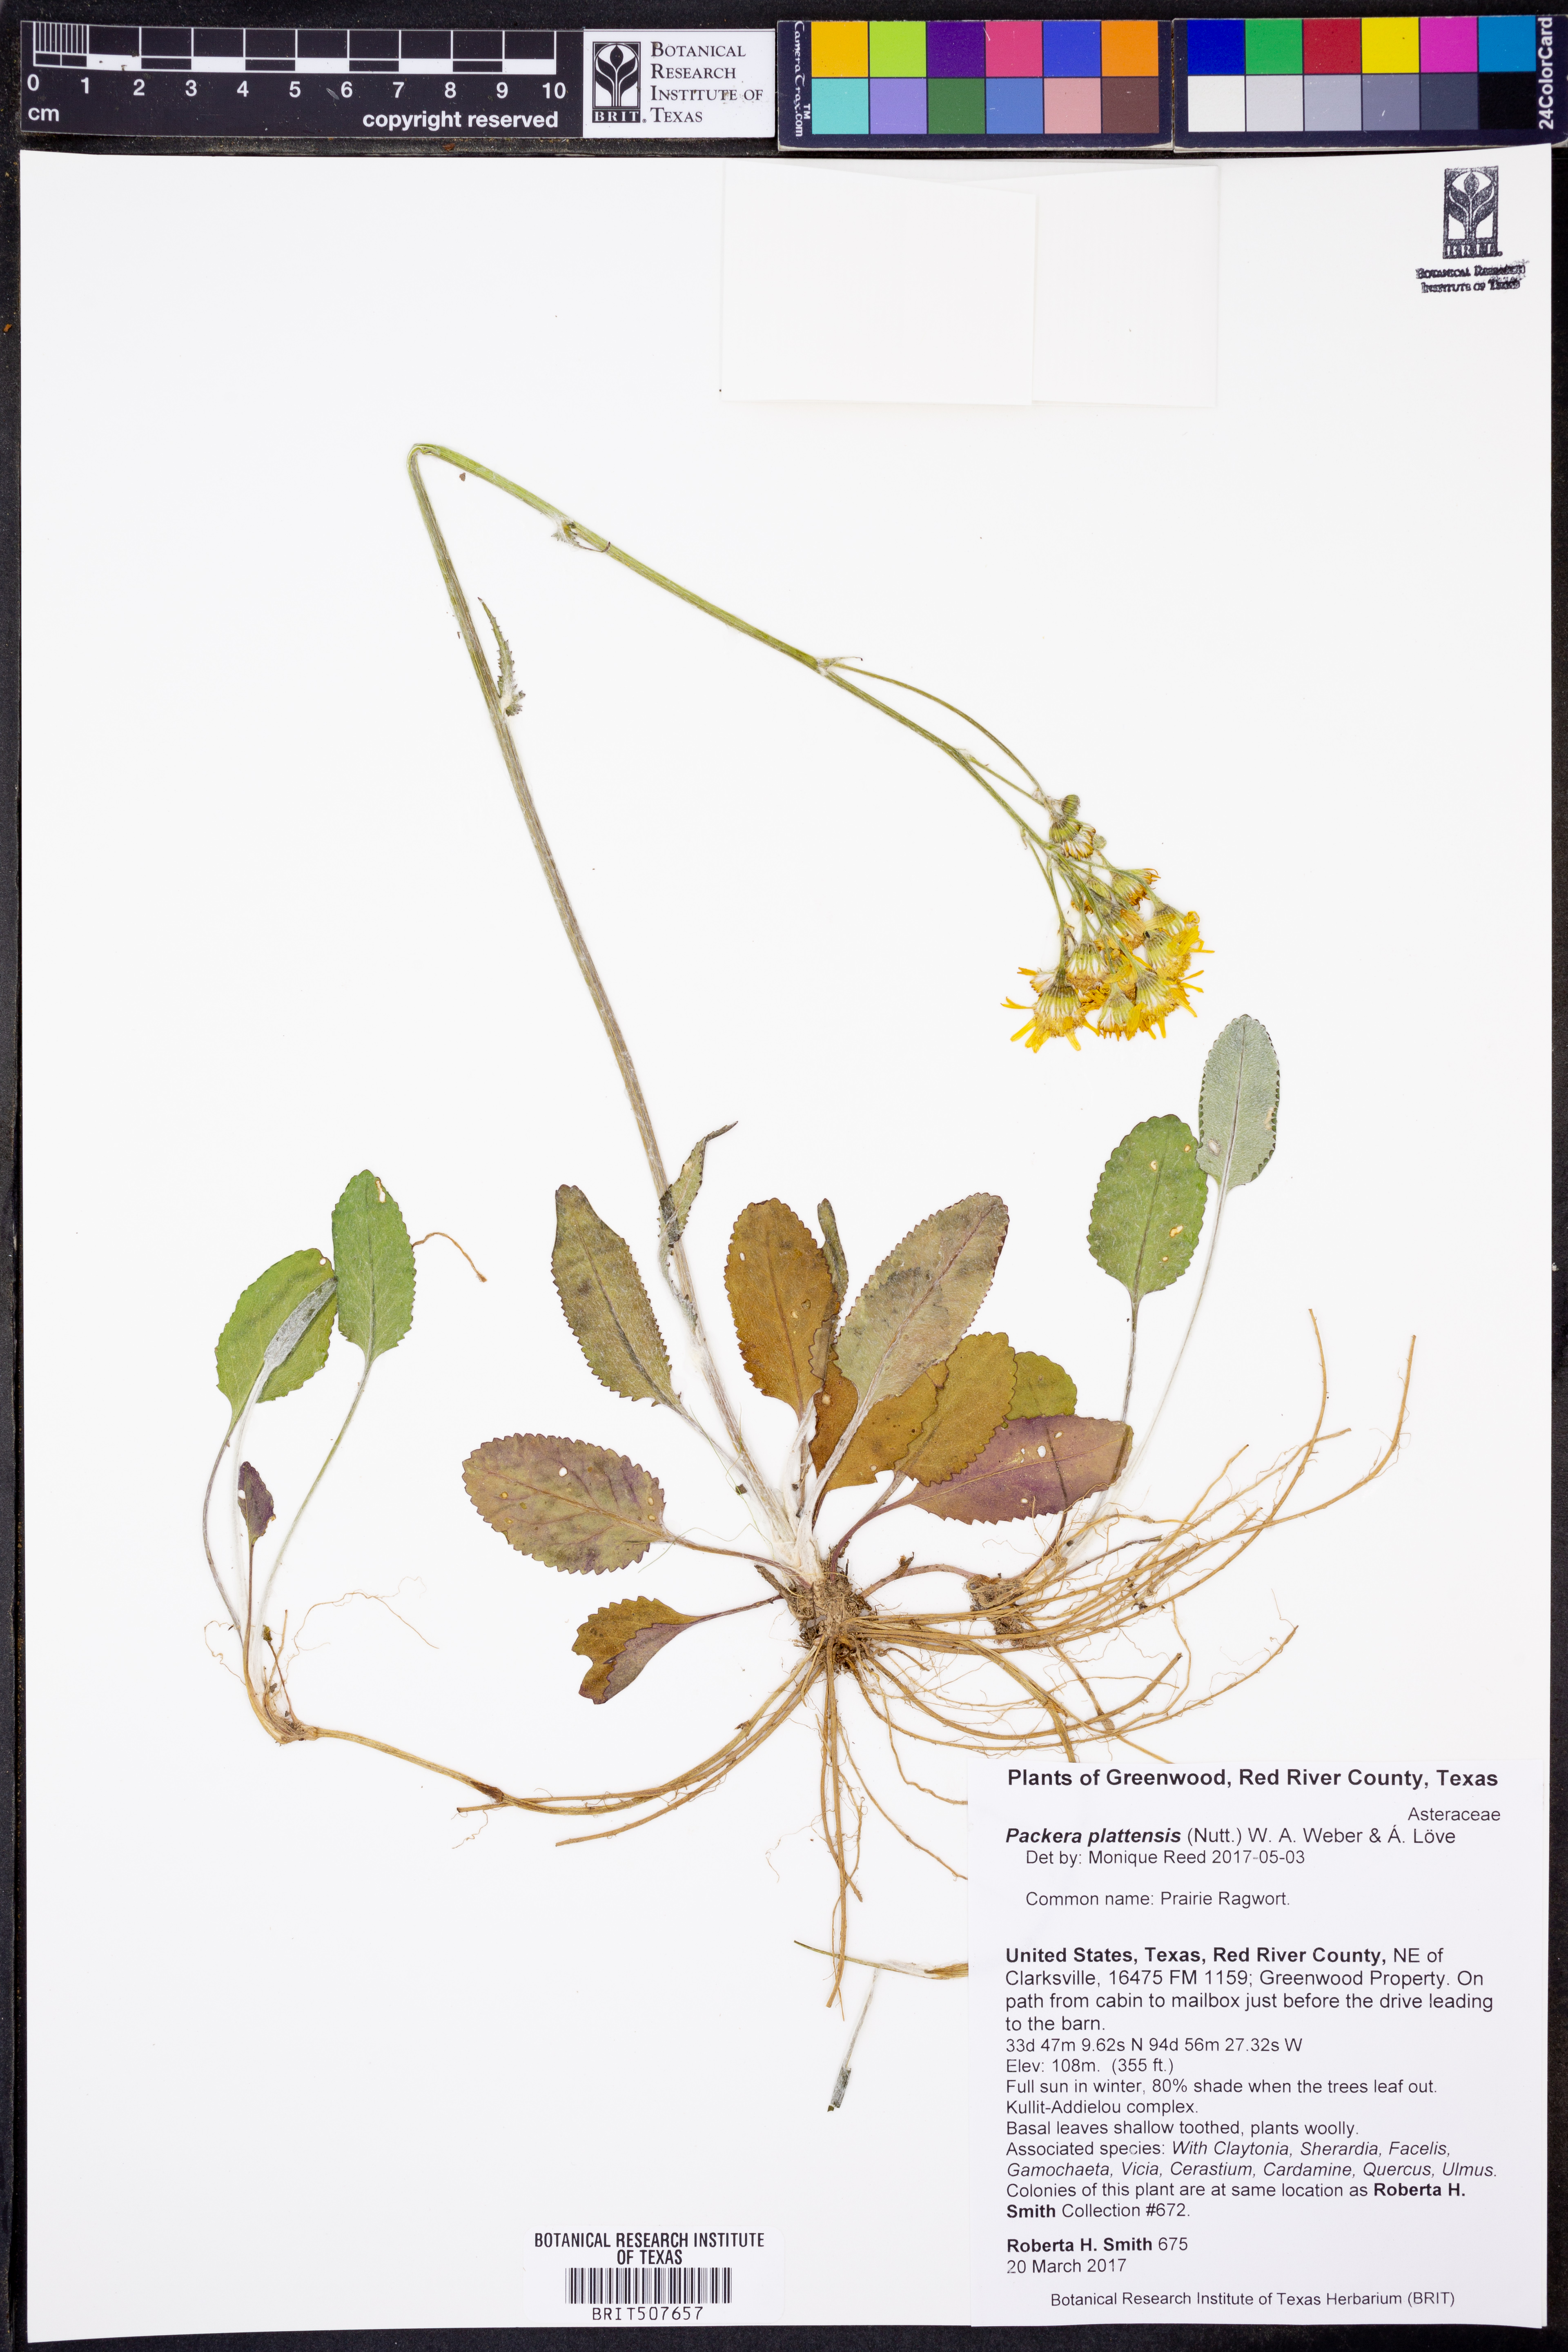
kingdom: Plantae
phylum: Tracheophyta
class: Magnoliopsida
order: Asterales
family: Asteraceae
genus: Packera
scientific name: Packera plattensis
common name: Prairie groundsel
